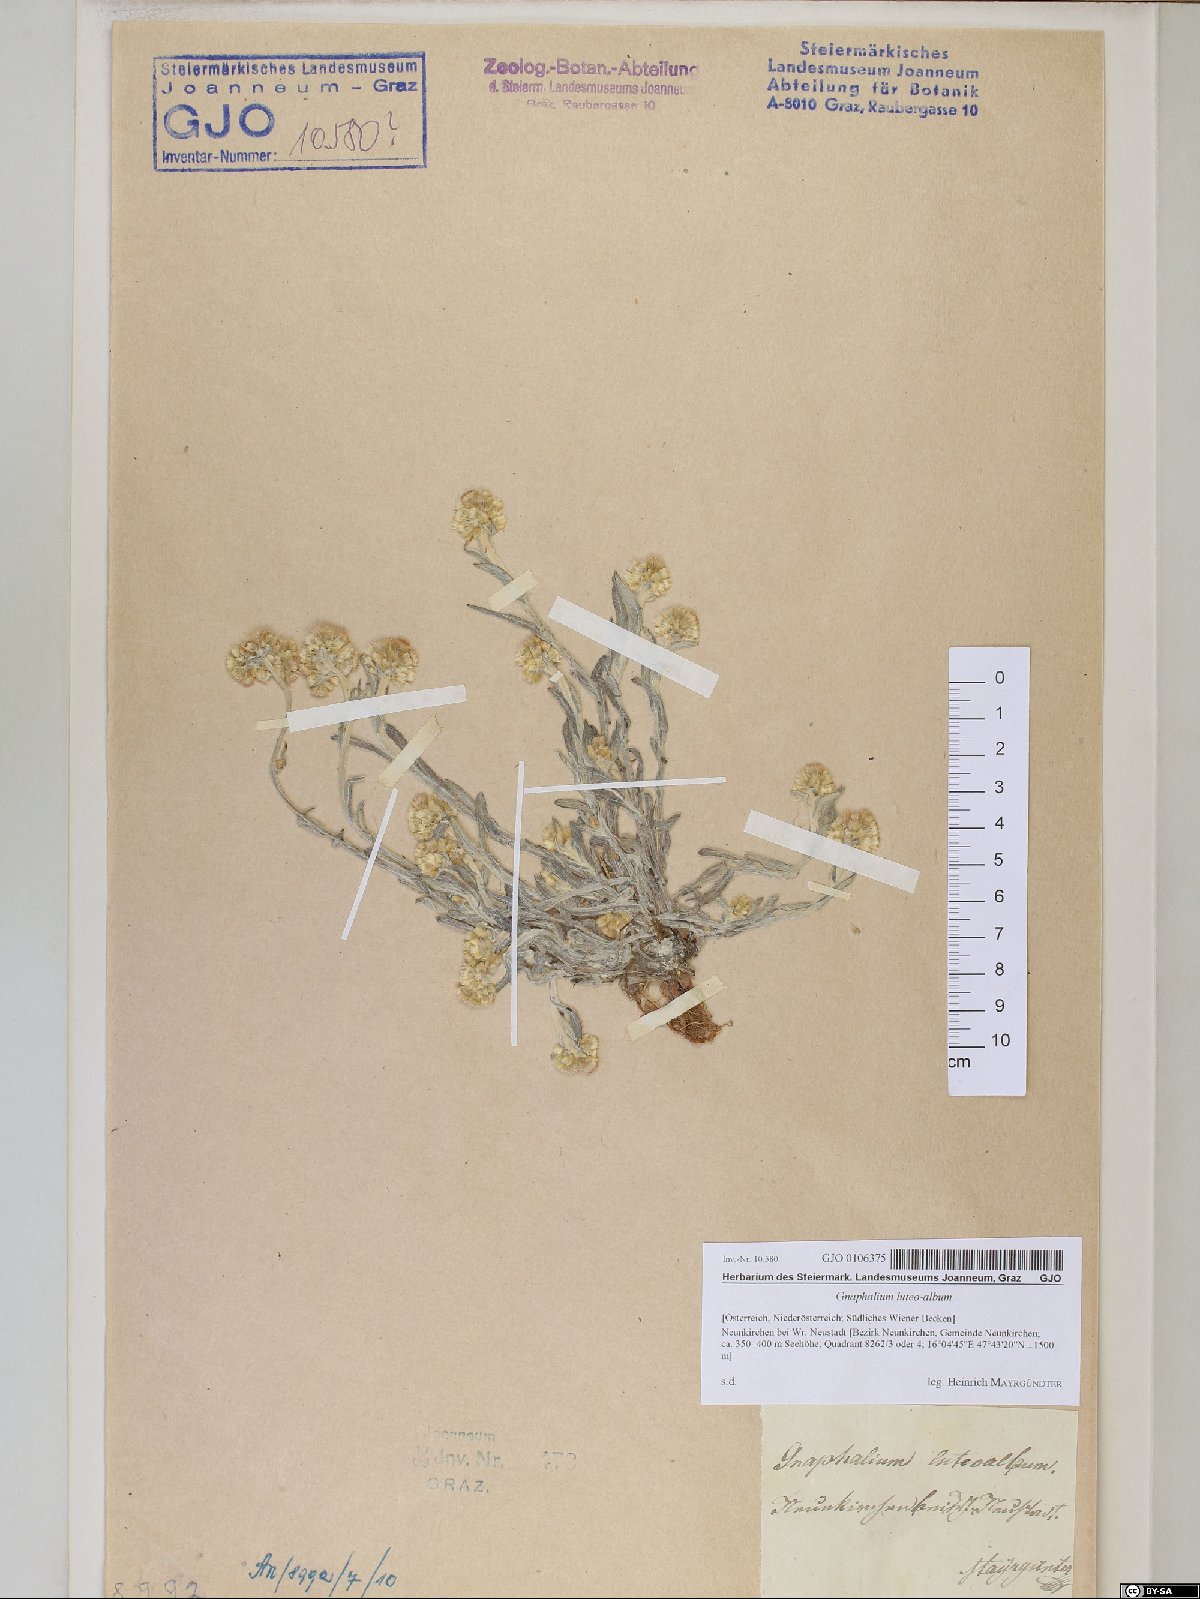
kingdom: Plantae
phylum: Tracheophyta
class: Magnoliopsida
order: Asterales
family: Asteraceae
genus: Helichrysum
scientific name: Helichrysum luteoalbum
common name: Daisy
